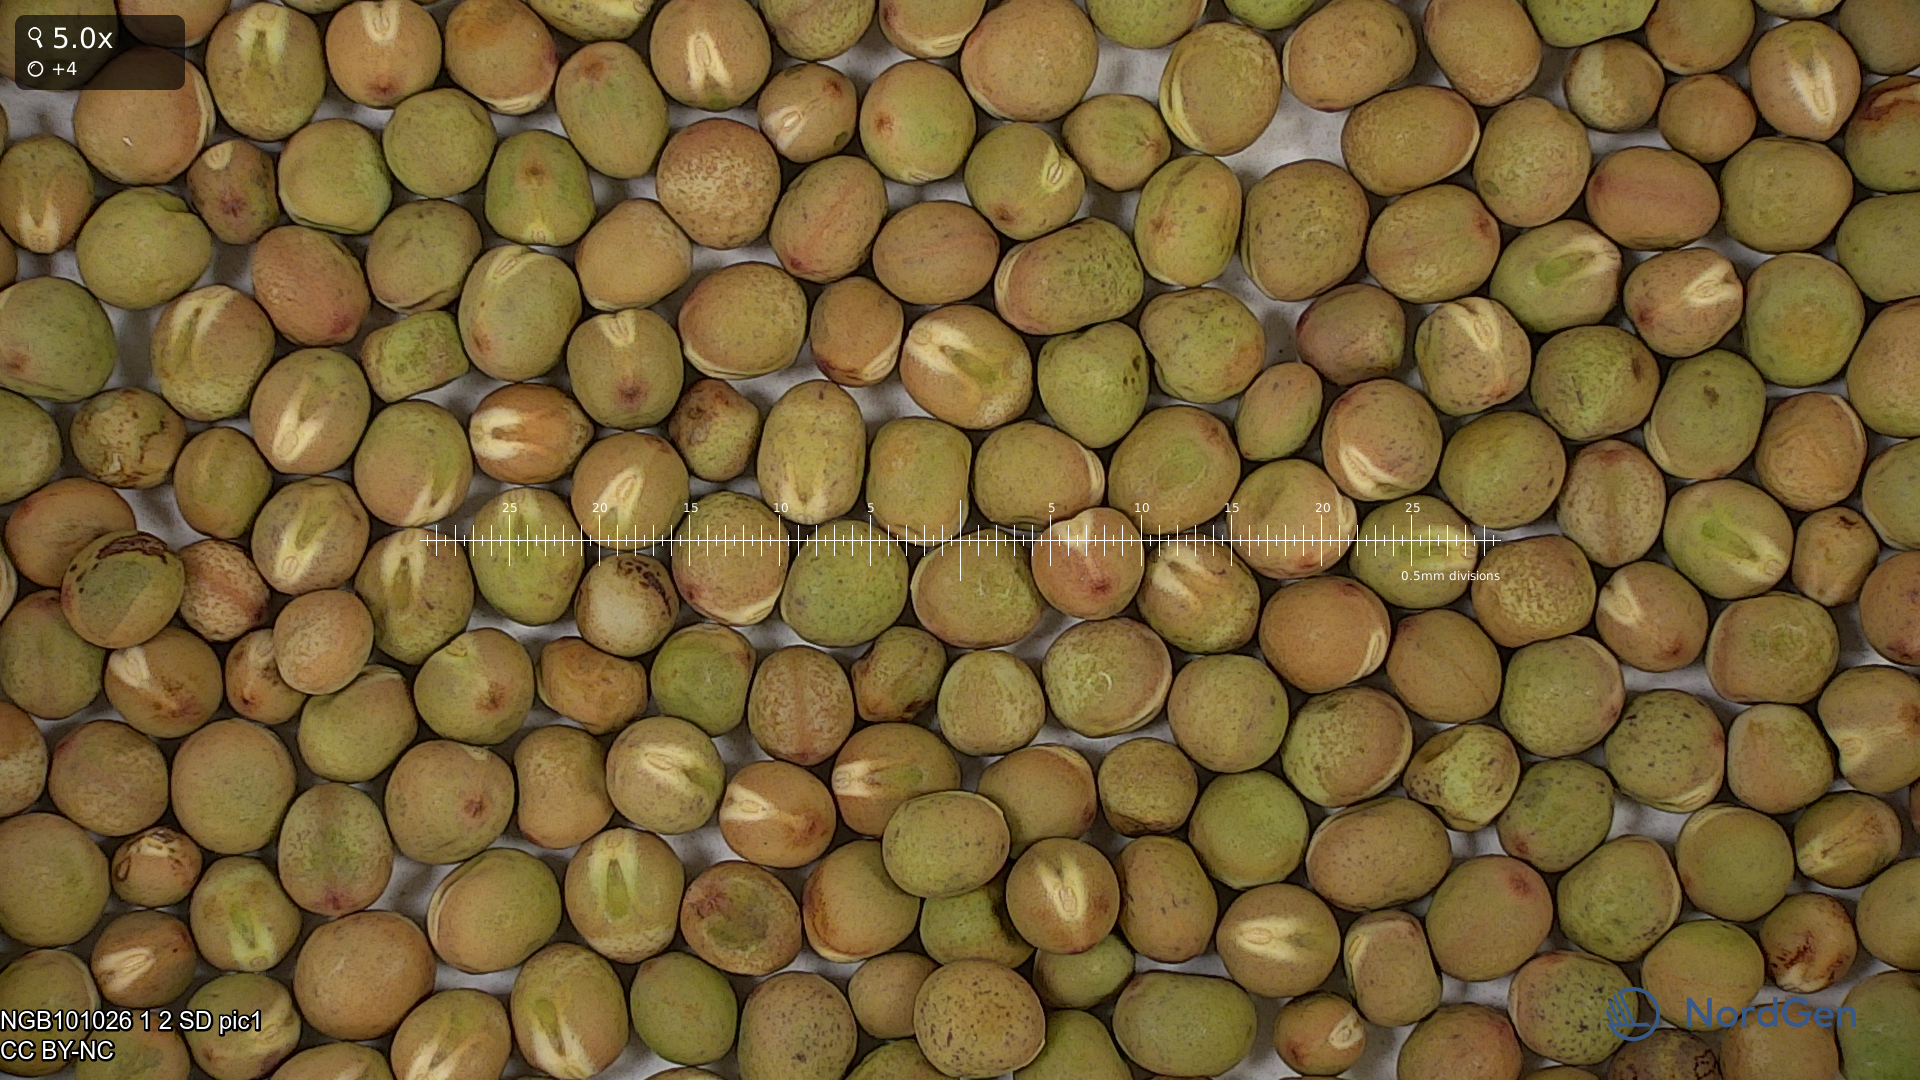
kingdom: Plantae
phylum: Tracheophyta
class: Magnoliopsida
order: Fabales
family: Fabaceae
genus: Lathyrus
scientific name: Lathyrus oleraceus
